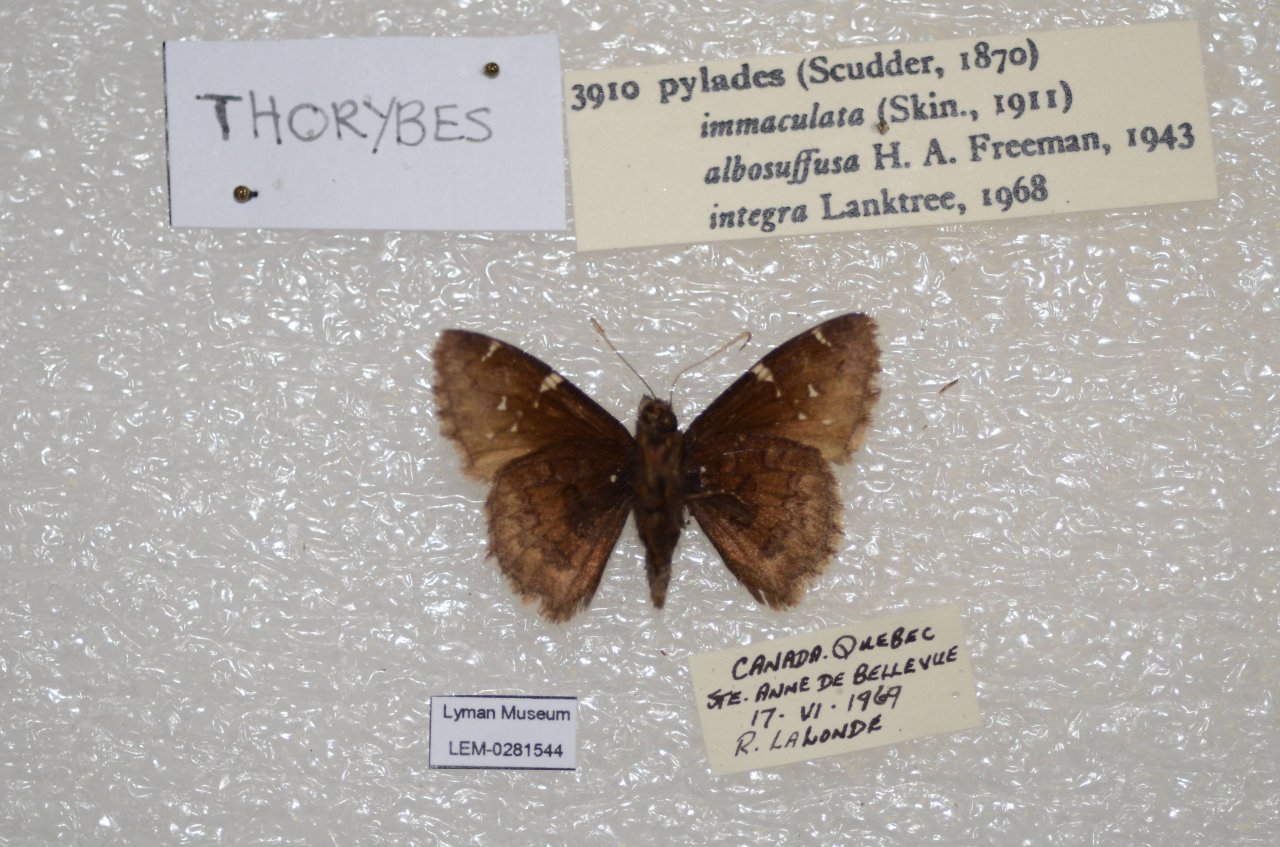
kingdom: Animalia
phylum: Arthropoda
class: Insecta
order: Lepidoptera
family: Hesperiidae
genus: Autochton
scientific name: Autochton
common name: Northern Cloudywing
